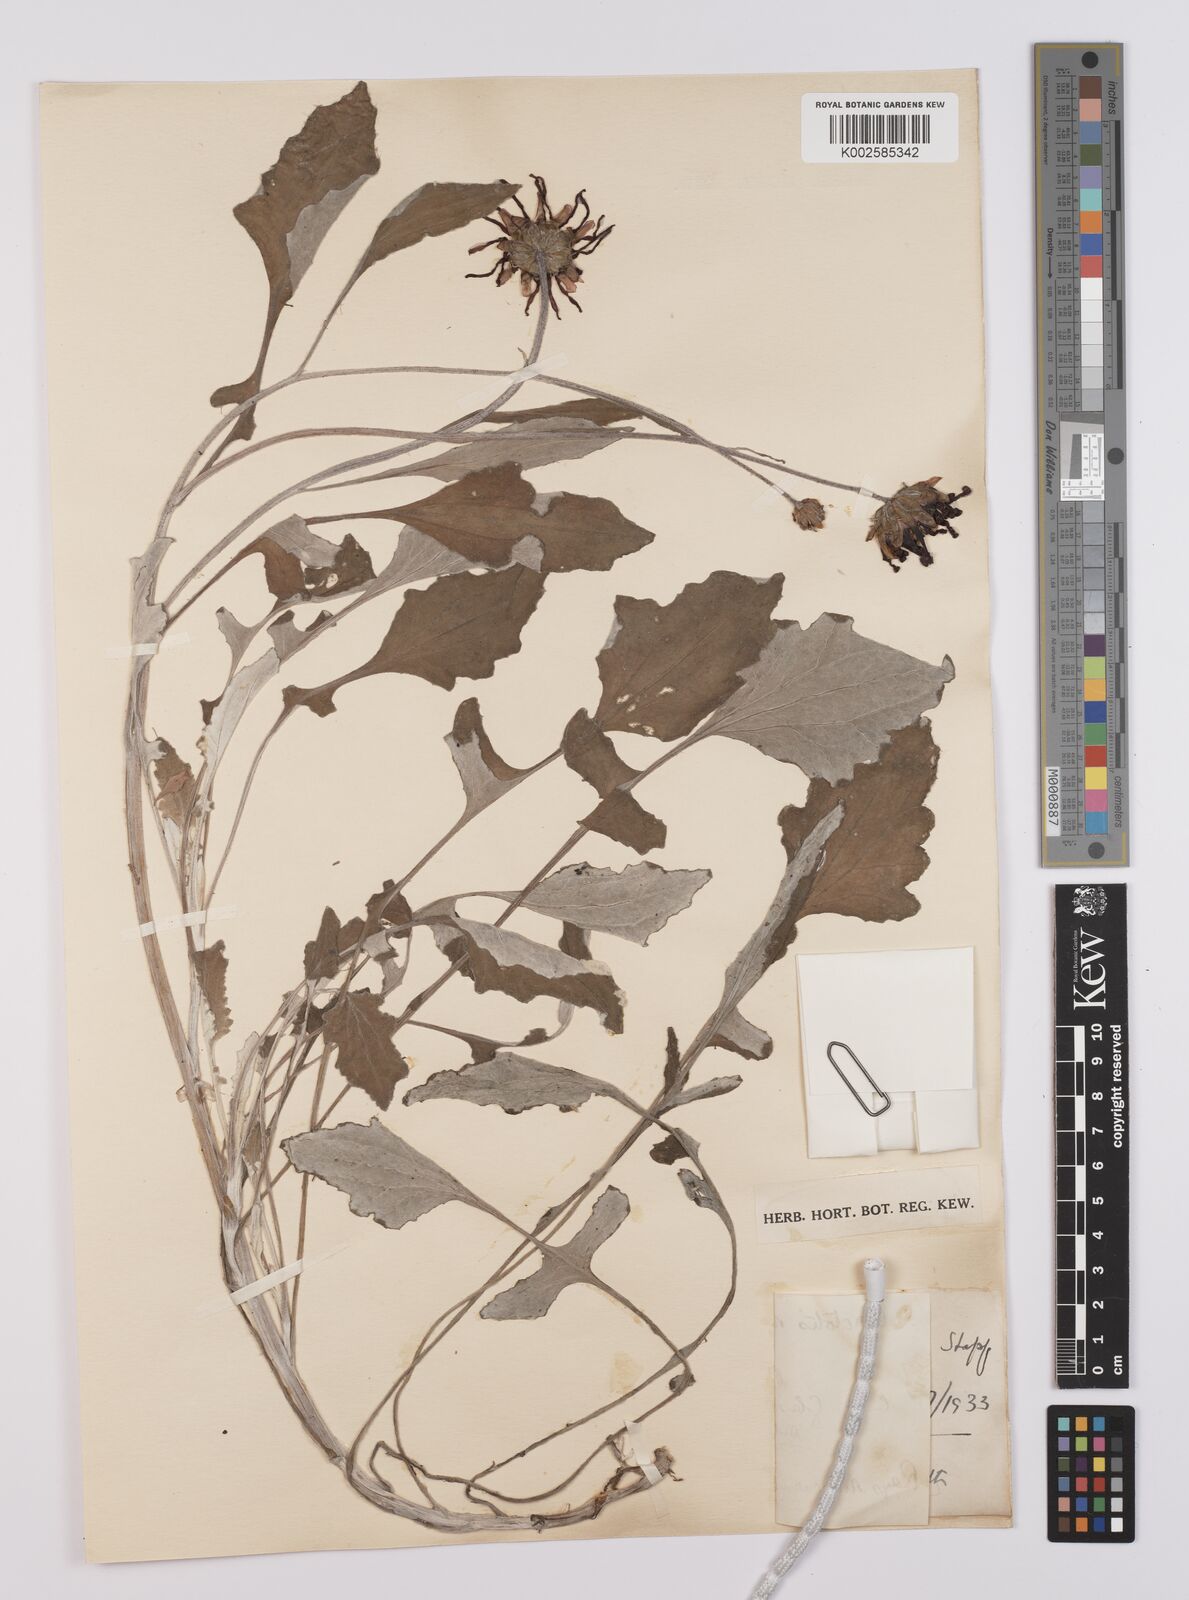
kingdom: Plantae
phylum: Tracheophyta
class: Magnoliopsida
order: Asterales
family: Asteraceae
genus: Arctotheca
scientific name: Arctotheca calendula
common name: Capeweed
